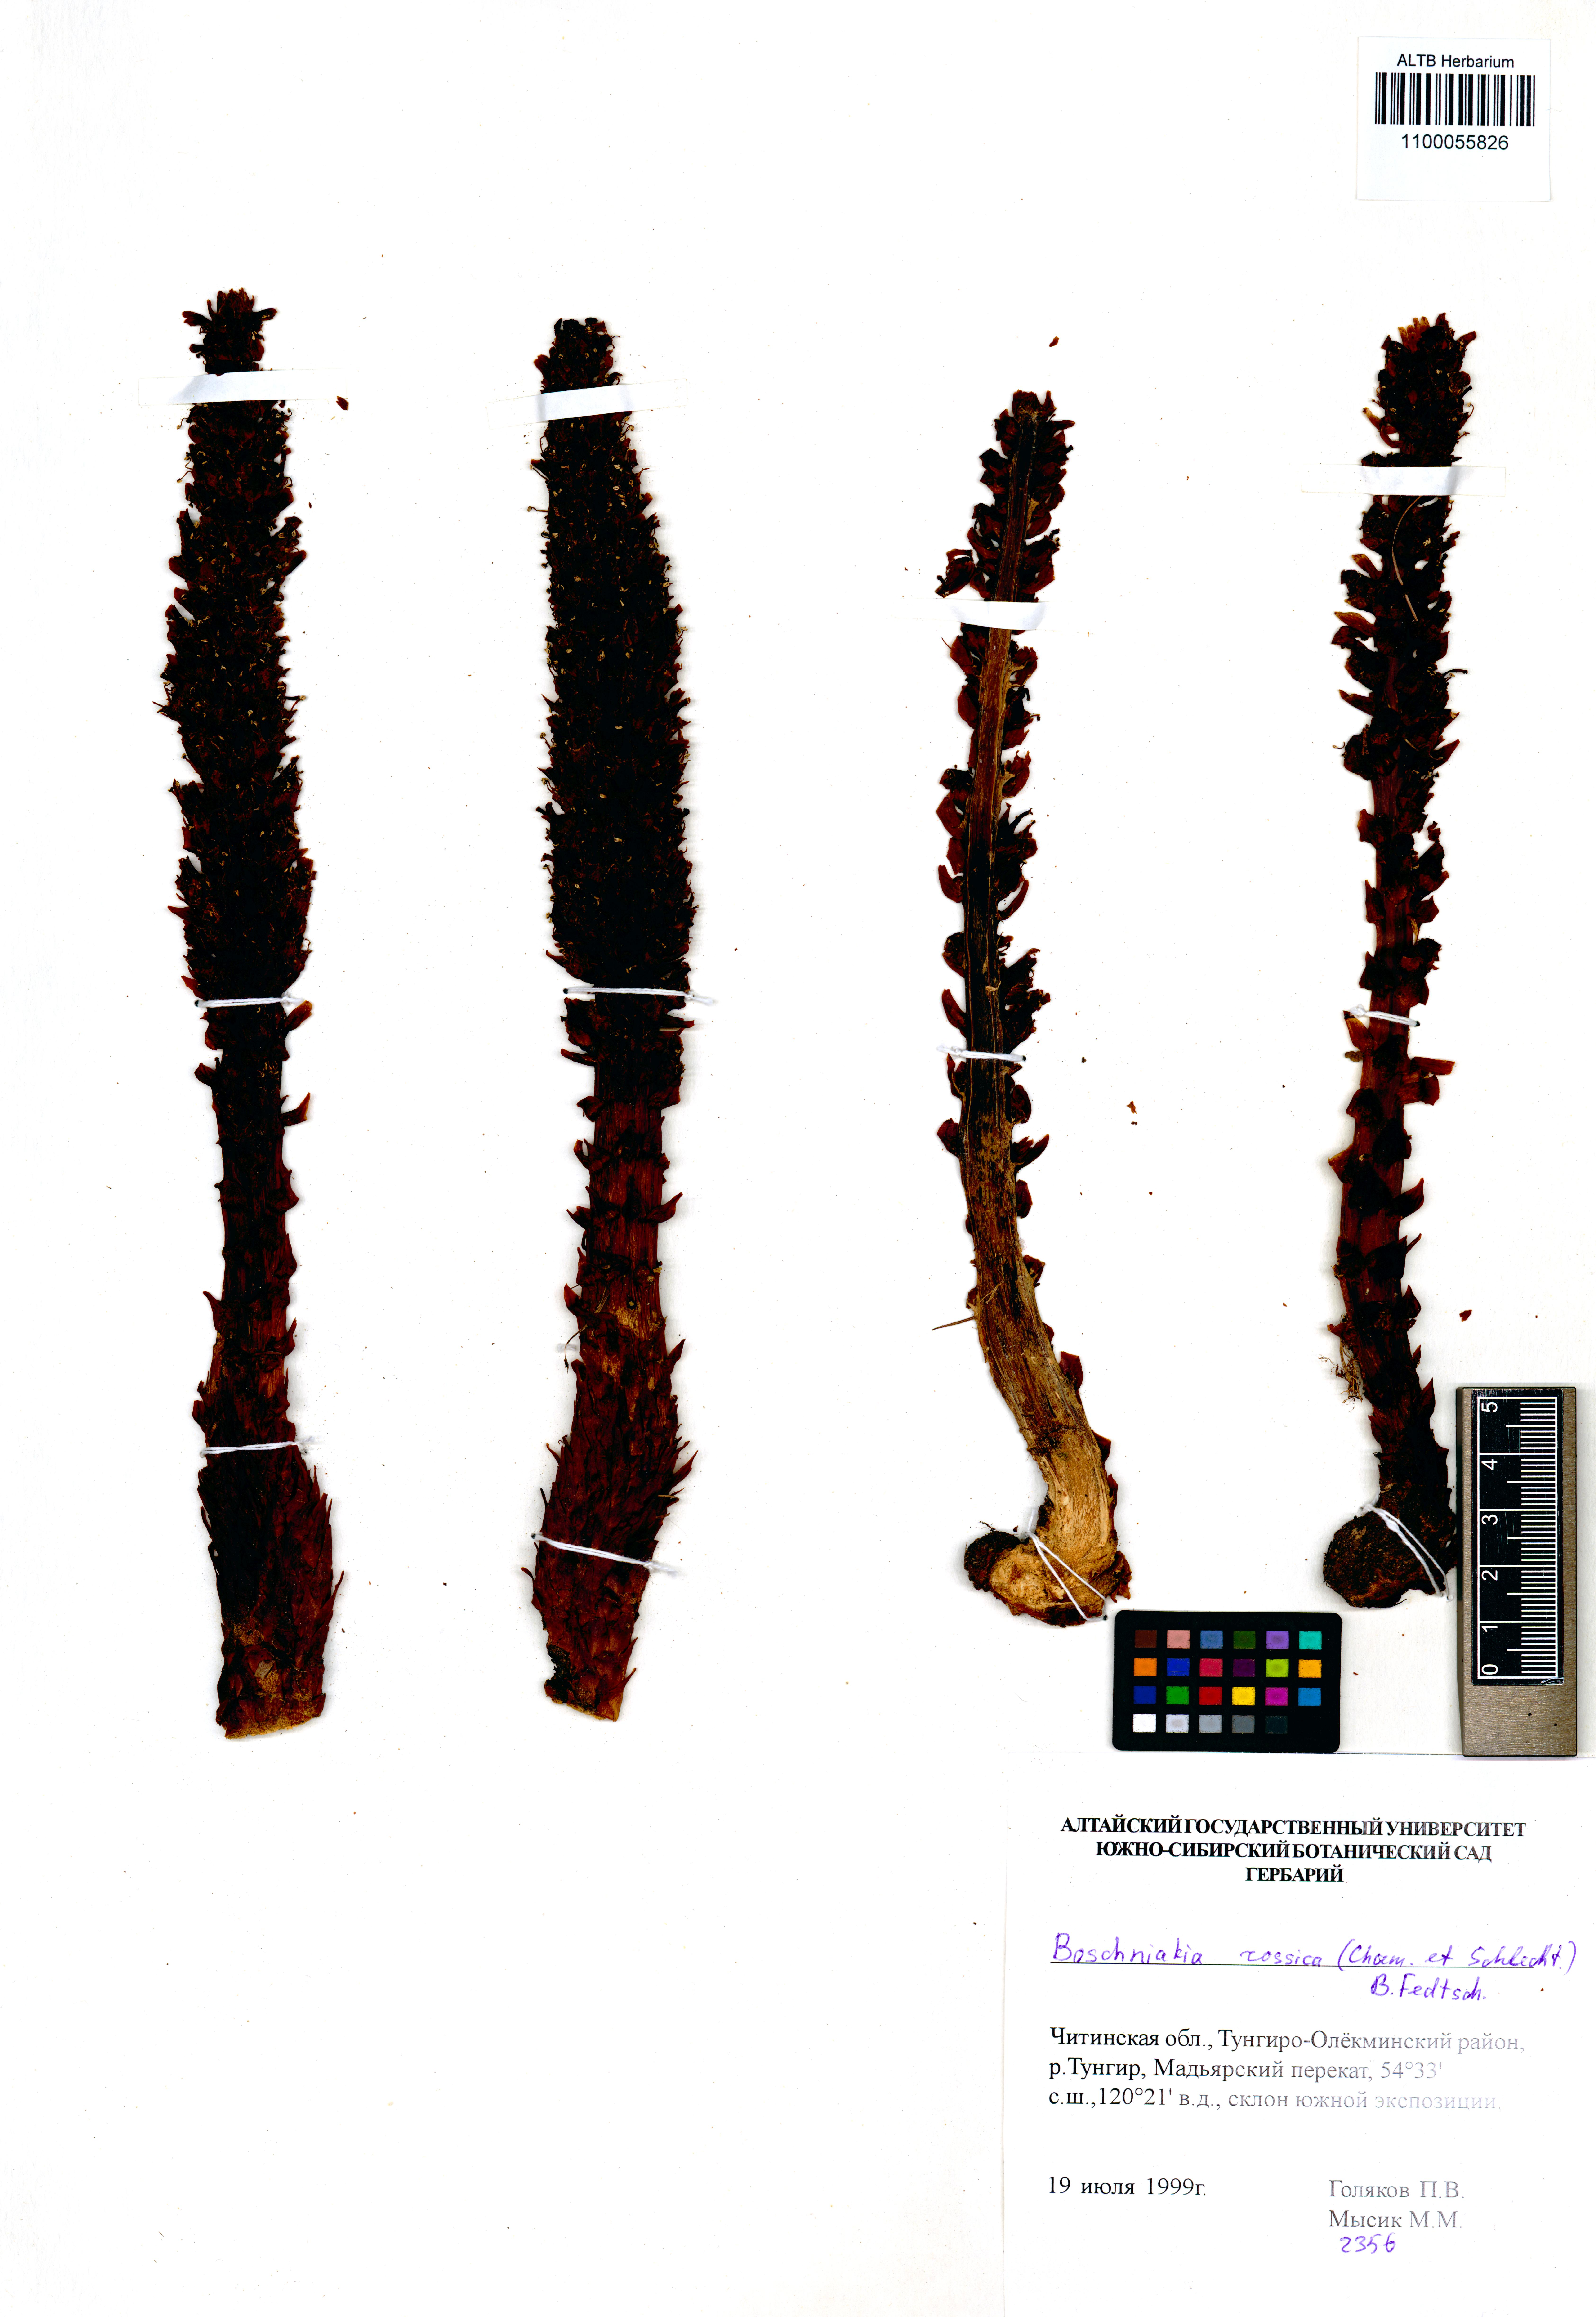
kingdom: Plantae
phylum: Tracheophyta
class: Magnoliopsida
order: Lamiales
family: Orobanchaceae
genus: Boschniakia
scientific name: Boschniakia rossica
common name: Poque
